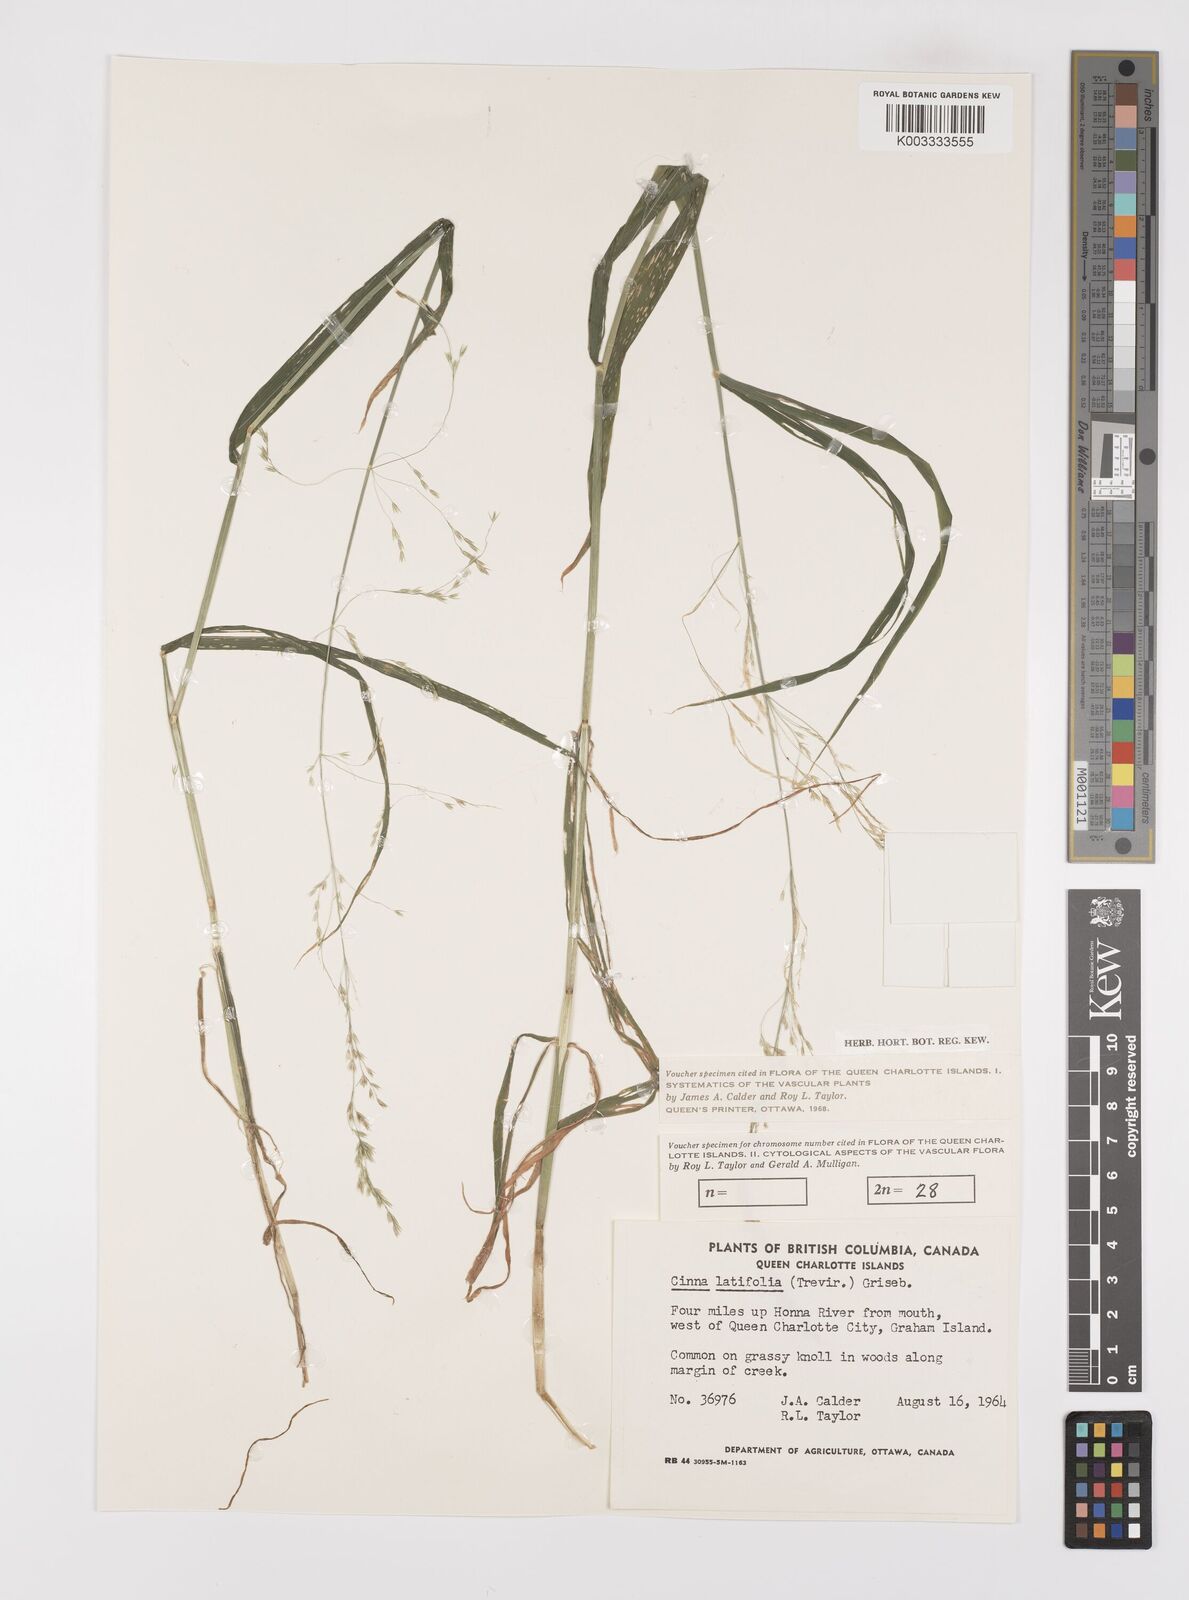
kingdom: Plantae
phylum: Tracheophyta
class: Liliopsida
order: Poales
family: Poaceae
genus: Cinna
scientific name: Cinna latifolia
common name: Drooping woodreed
